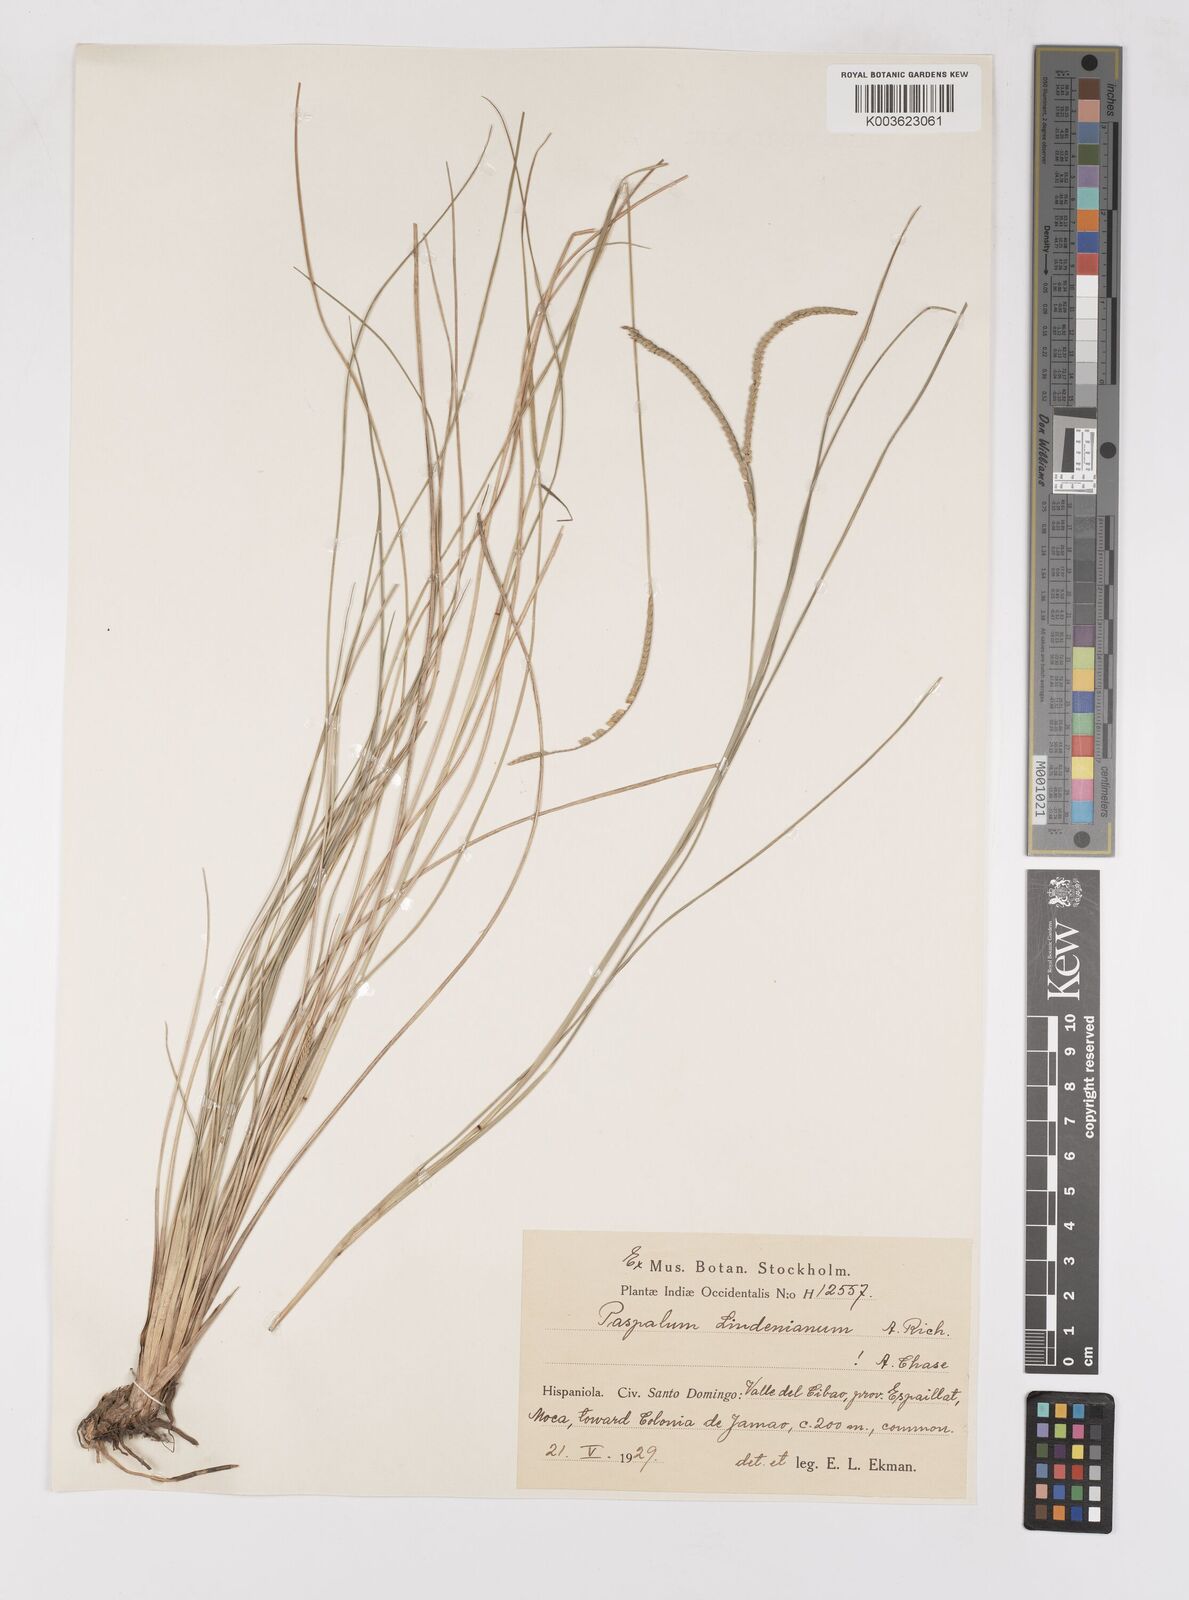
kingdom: Plantae
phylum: Tracheophyta
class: Liliopsida
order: Poales
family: Poaceae
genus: Paspalum
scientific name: Paspalum lindenianum
